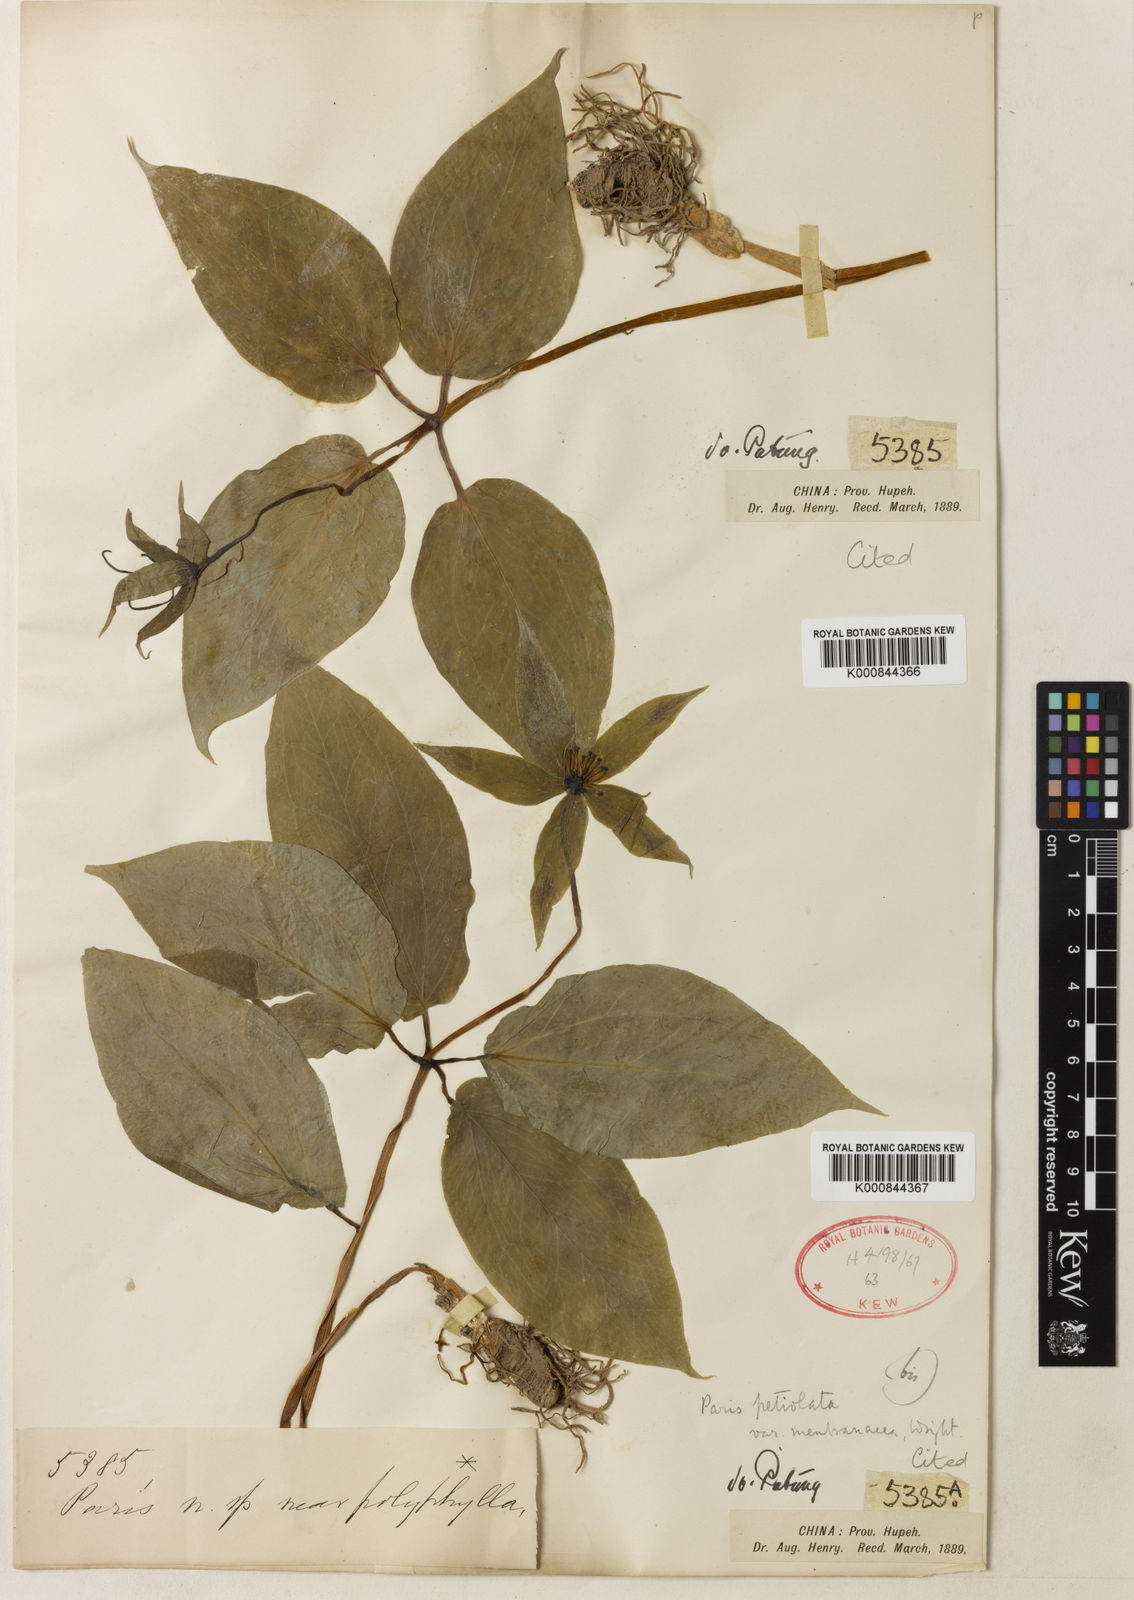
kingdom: Plantae
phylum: Tracheophyta
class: Liliopsida
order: Liliales
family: Melanthiaceae
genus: Paris
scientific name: Paris fargesii
